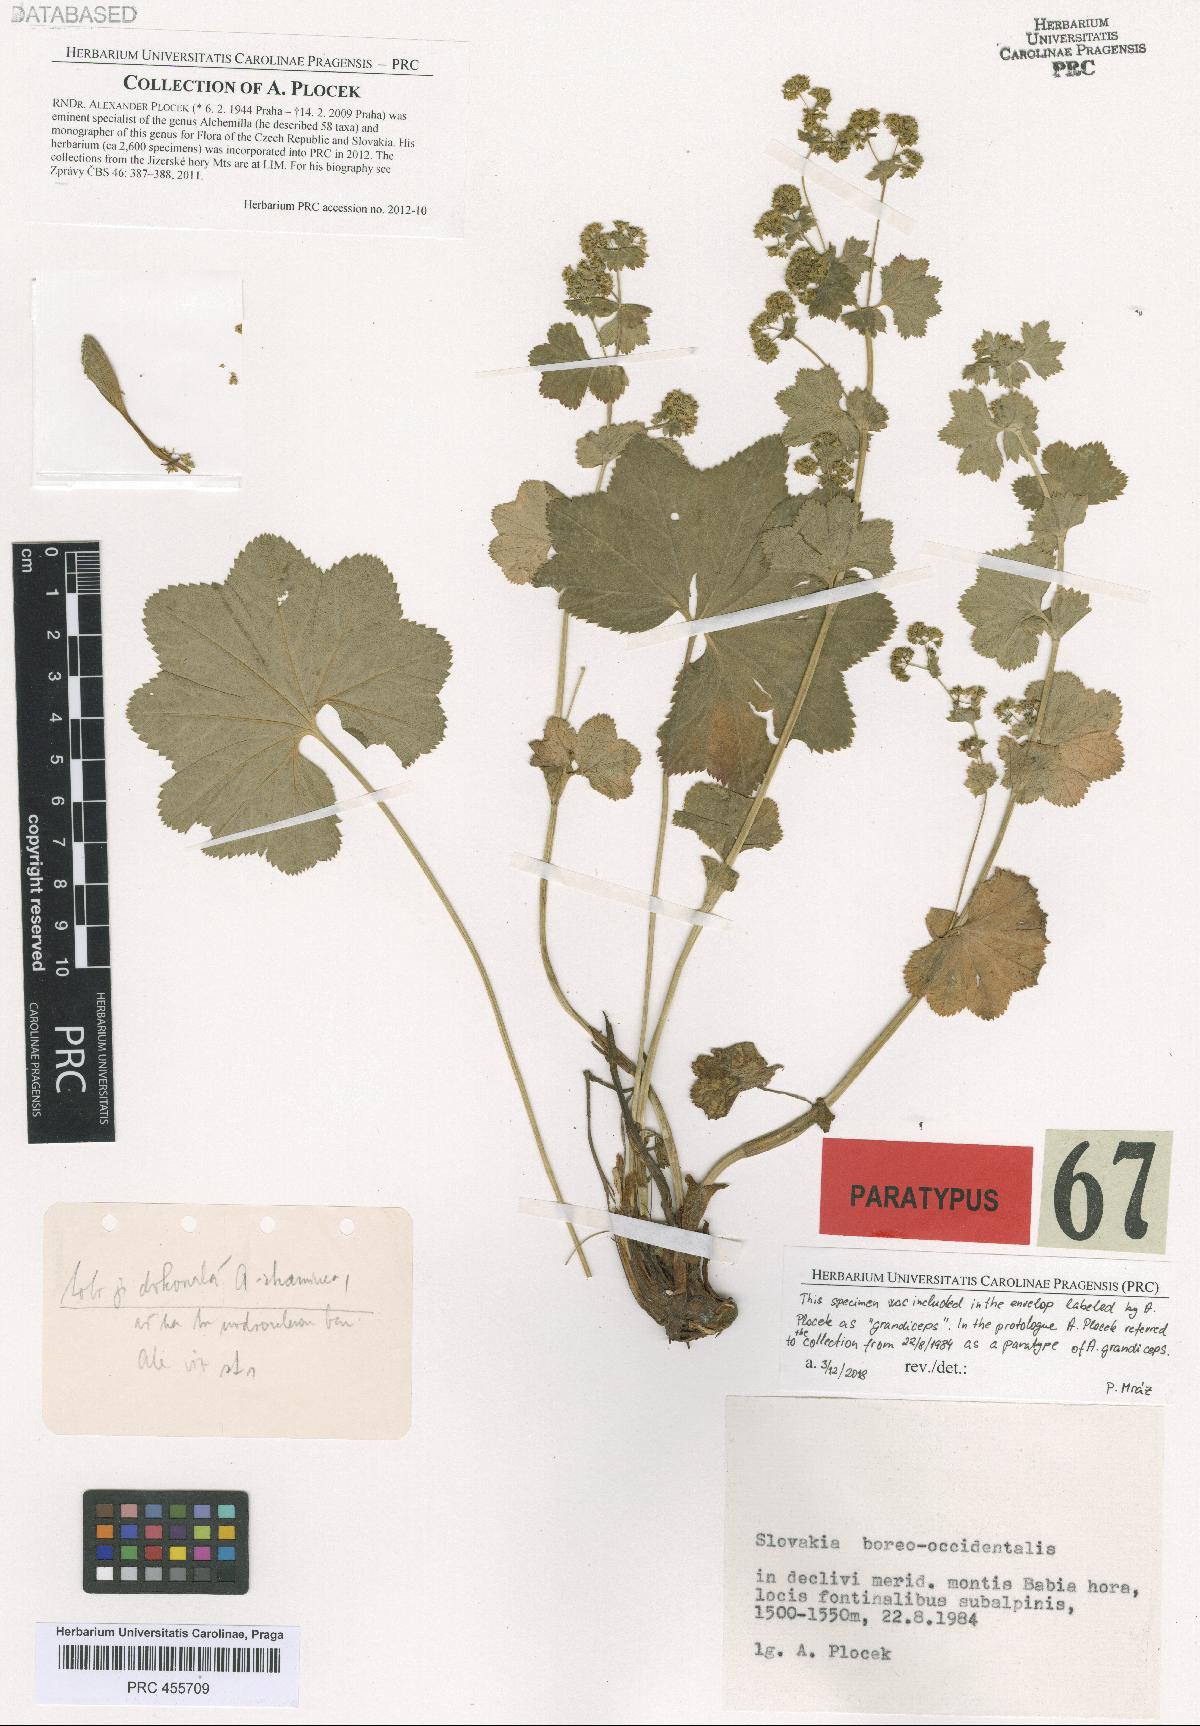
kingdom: Plantae
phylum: Tracheophyta
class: Magnoliopsida
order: Rosales
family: Rosaceae
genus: Alchemilla
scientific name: Alchemilla grandiceps
